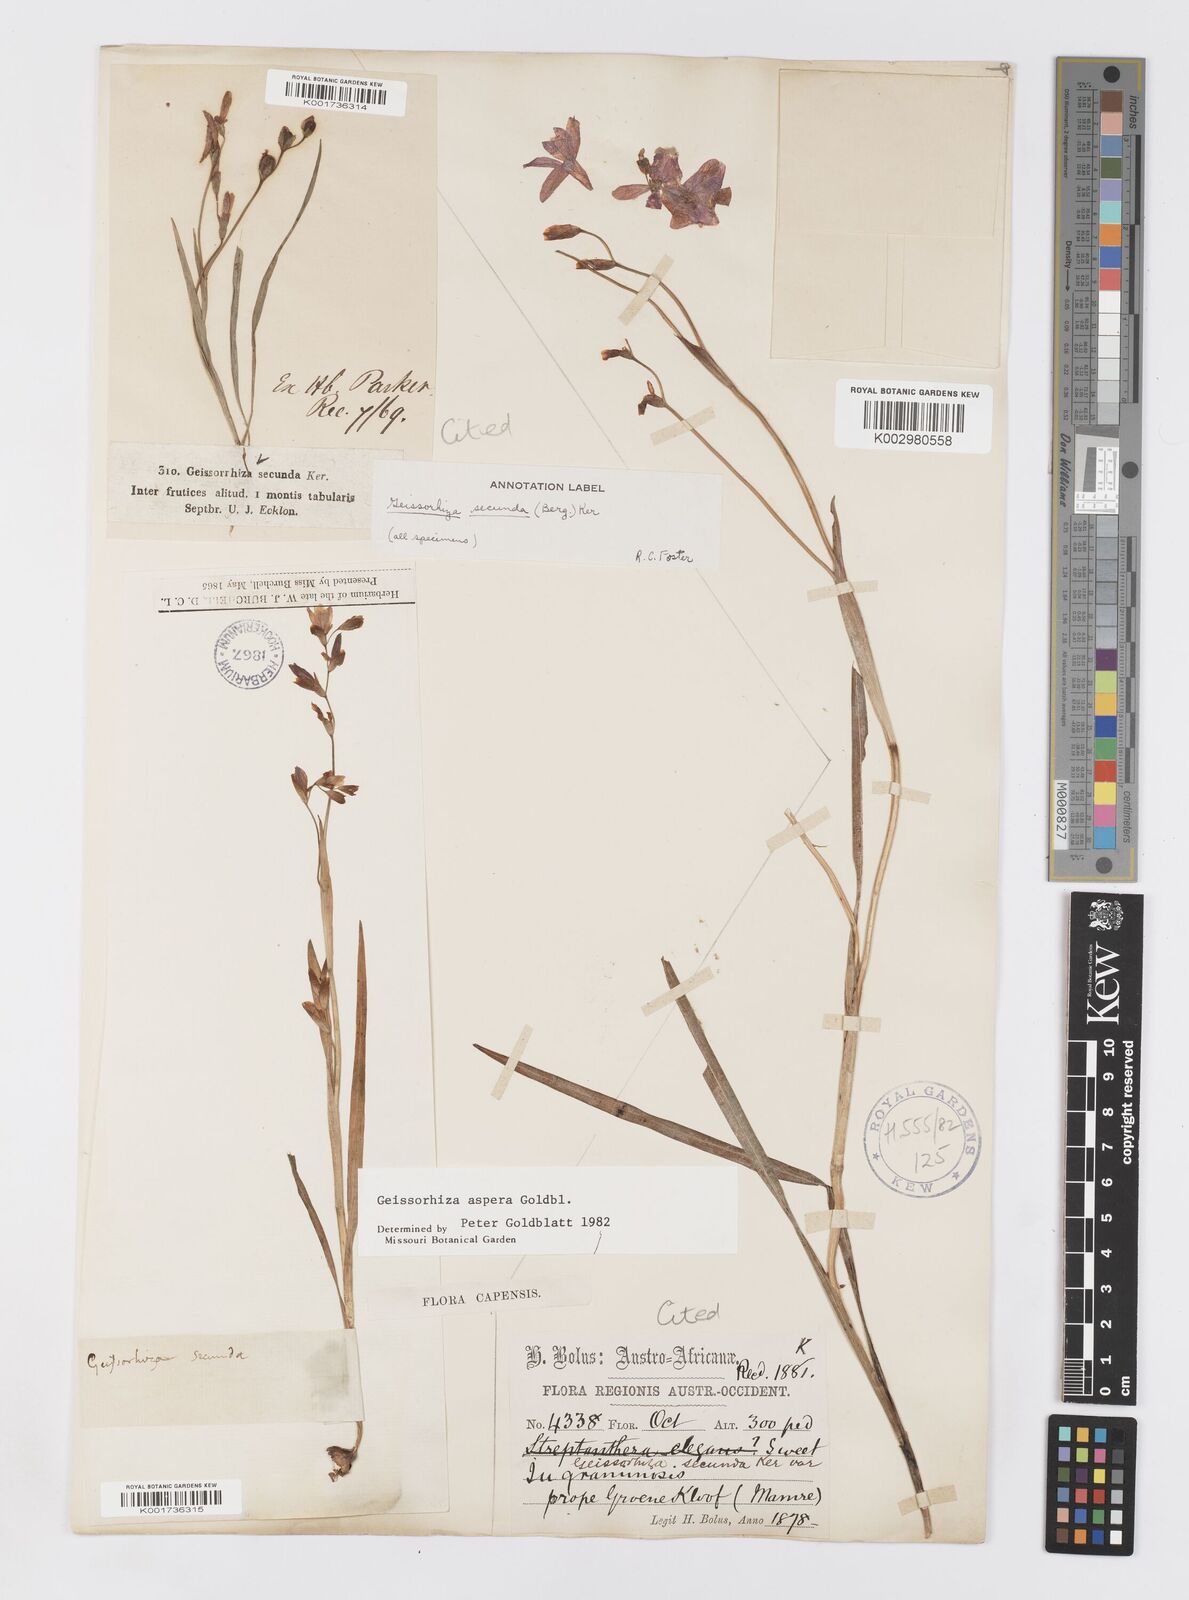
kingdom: Plantae
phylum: Tracheophyta
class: Liliopsida
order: Asparagales
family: Iridaceae
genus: Geissorhiza
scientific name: Geissorhiza aspera
